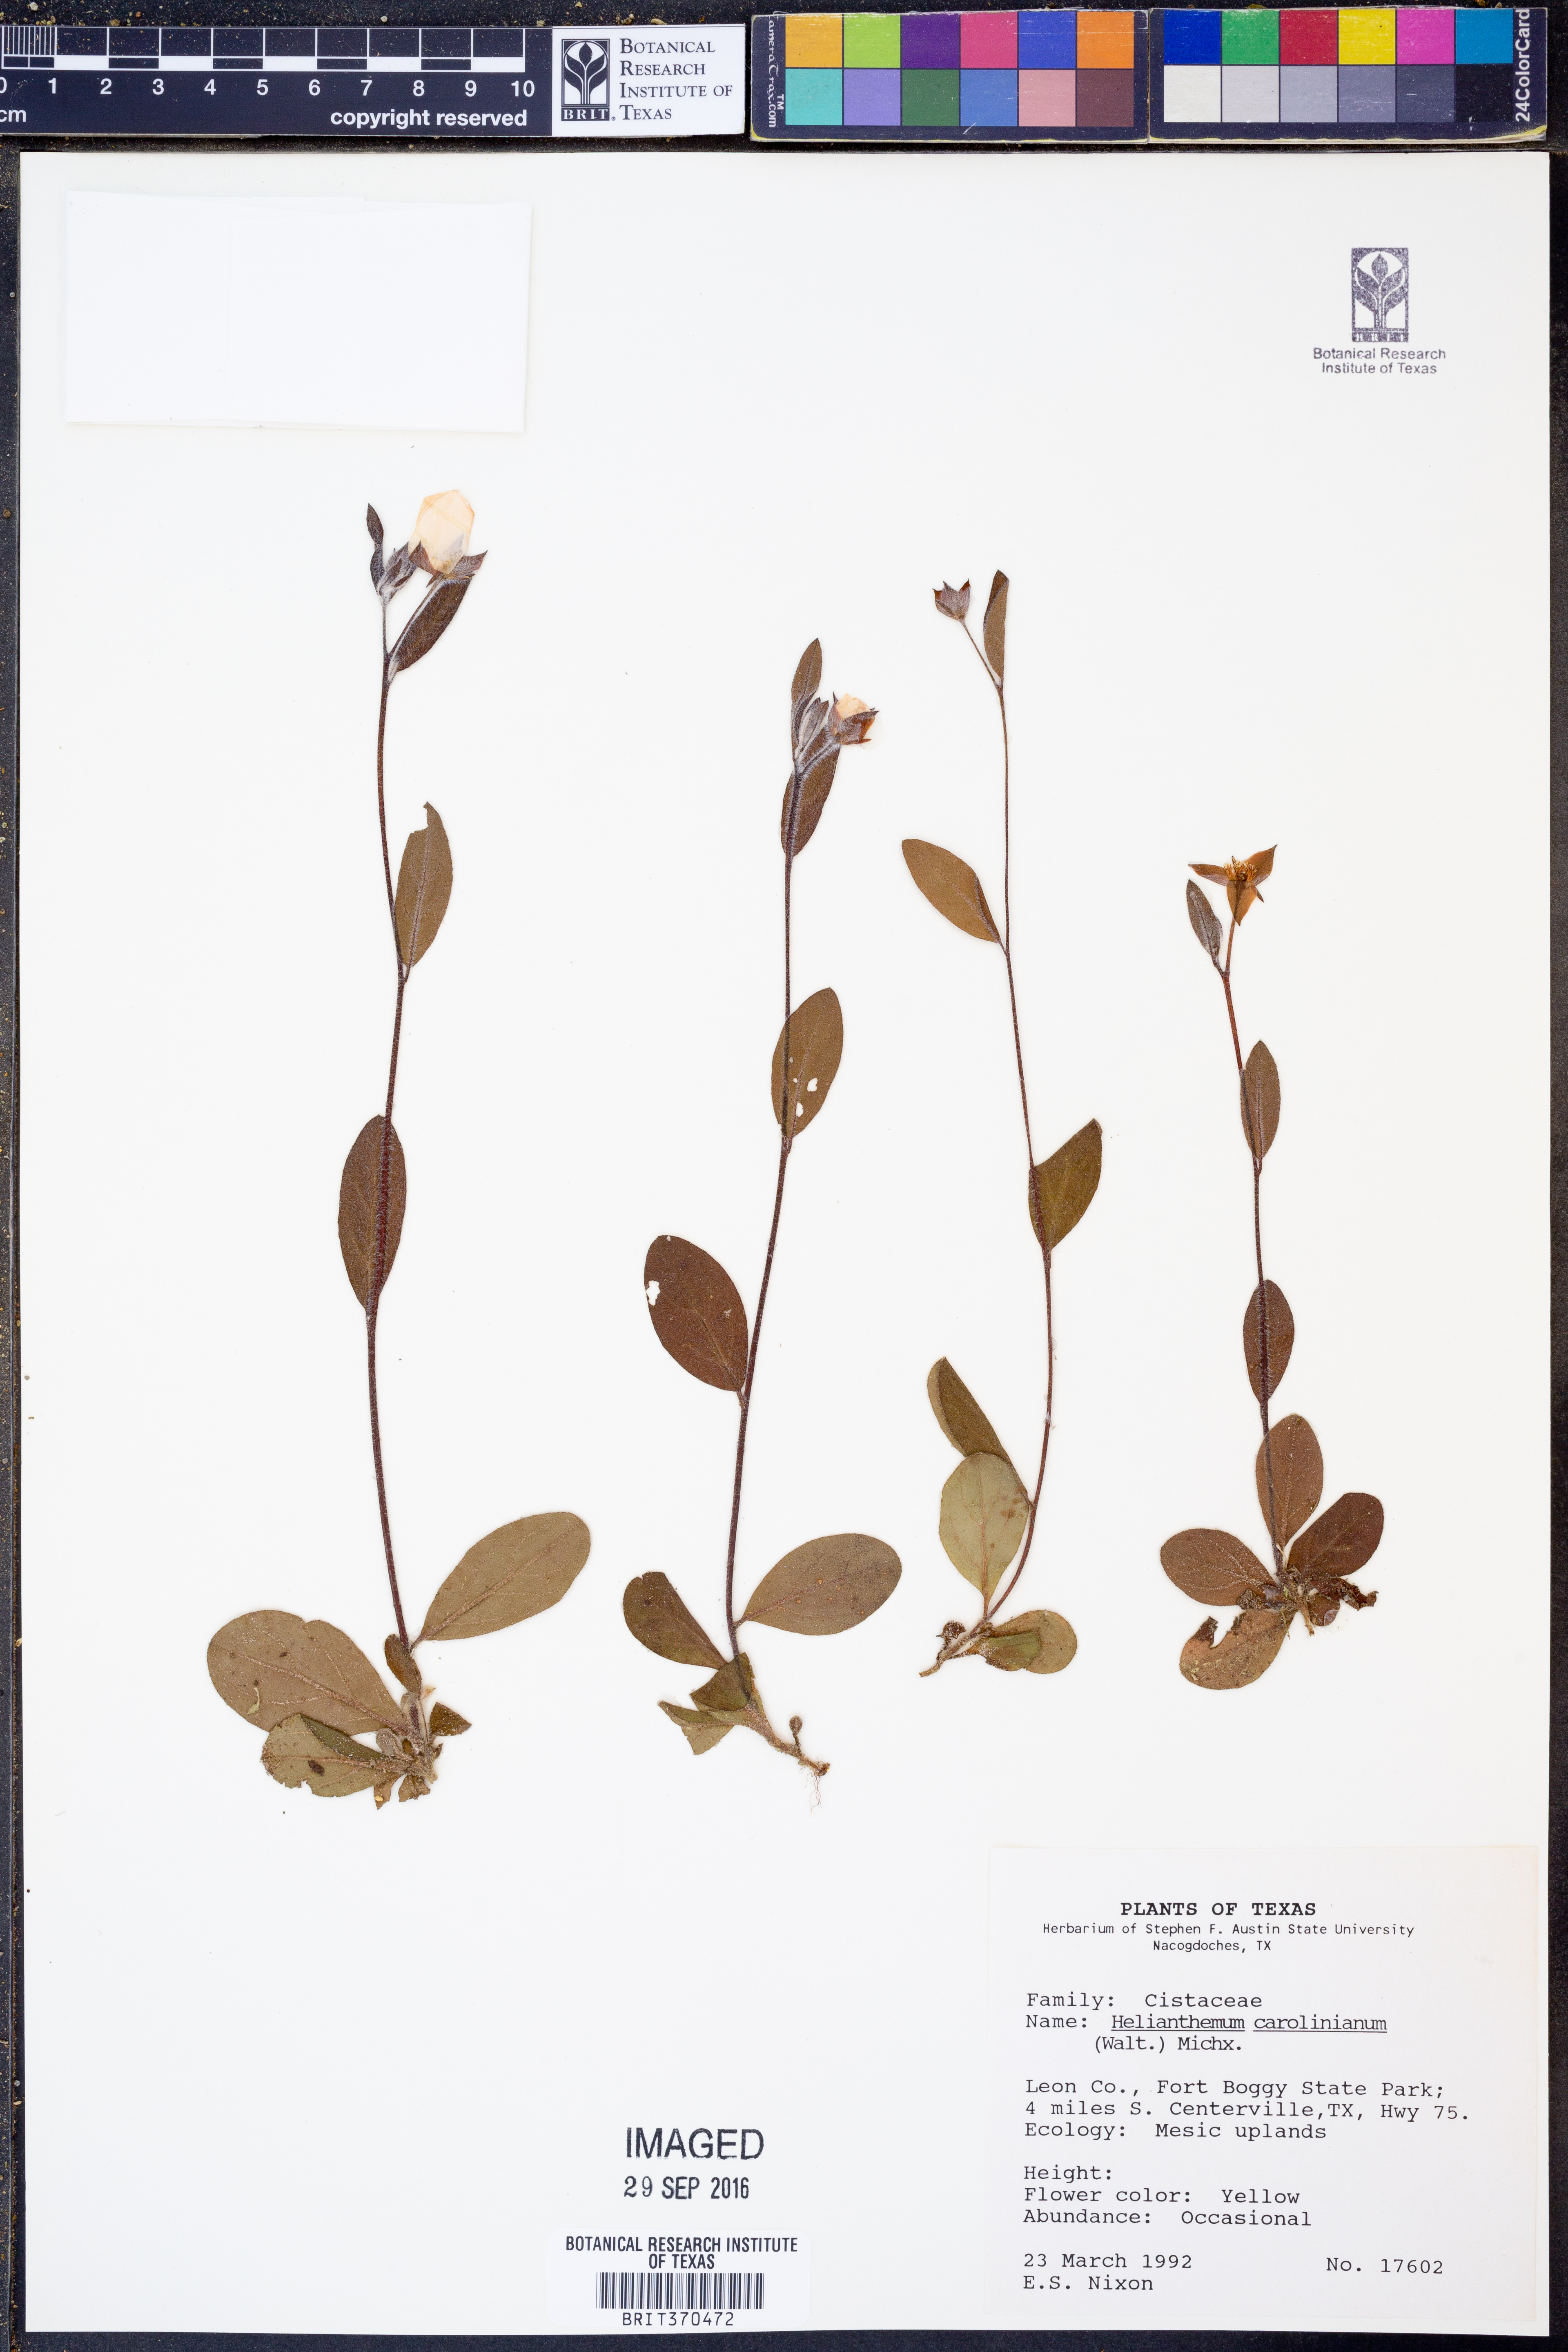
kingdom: Plantae
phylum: Tracheophyta
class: Magnoliopsida
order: Malvales
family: Cistaceae
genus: Crocanthemum
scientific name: Crocanthemum carolinianum
